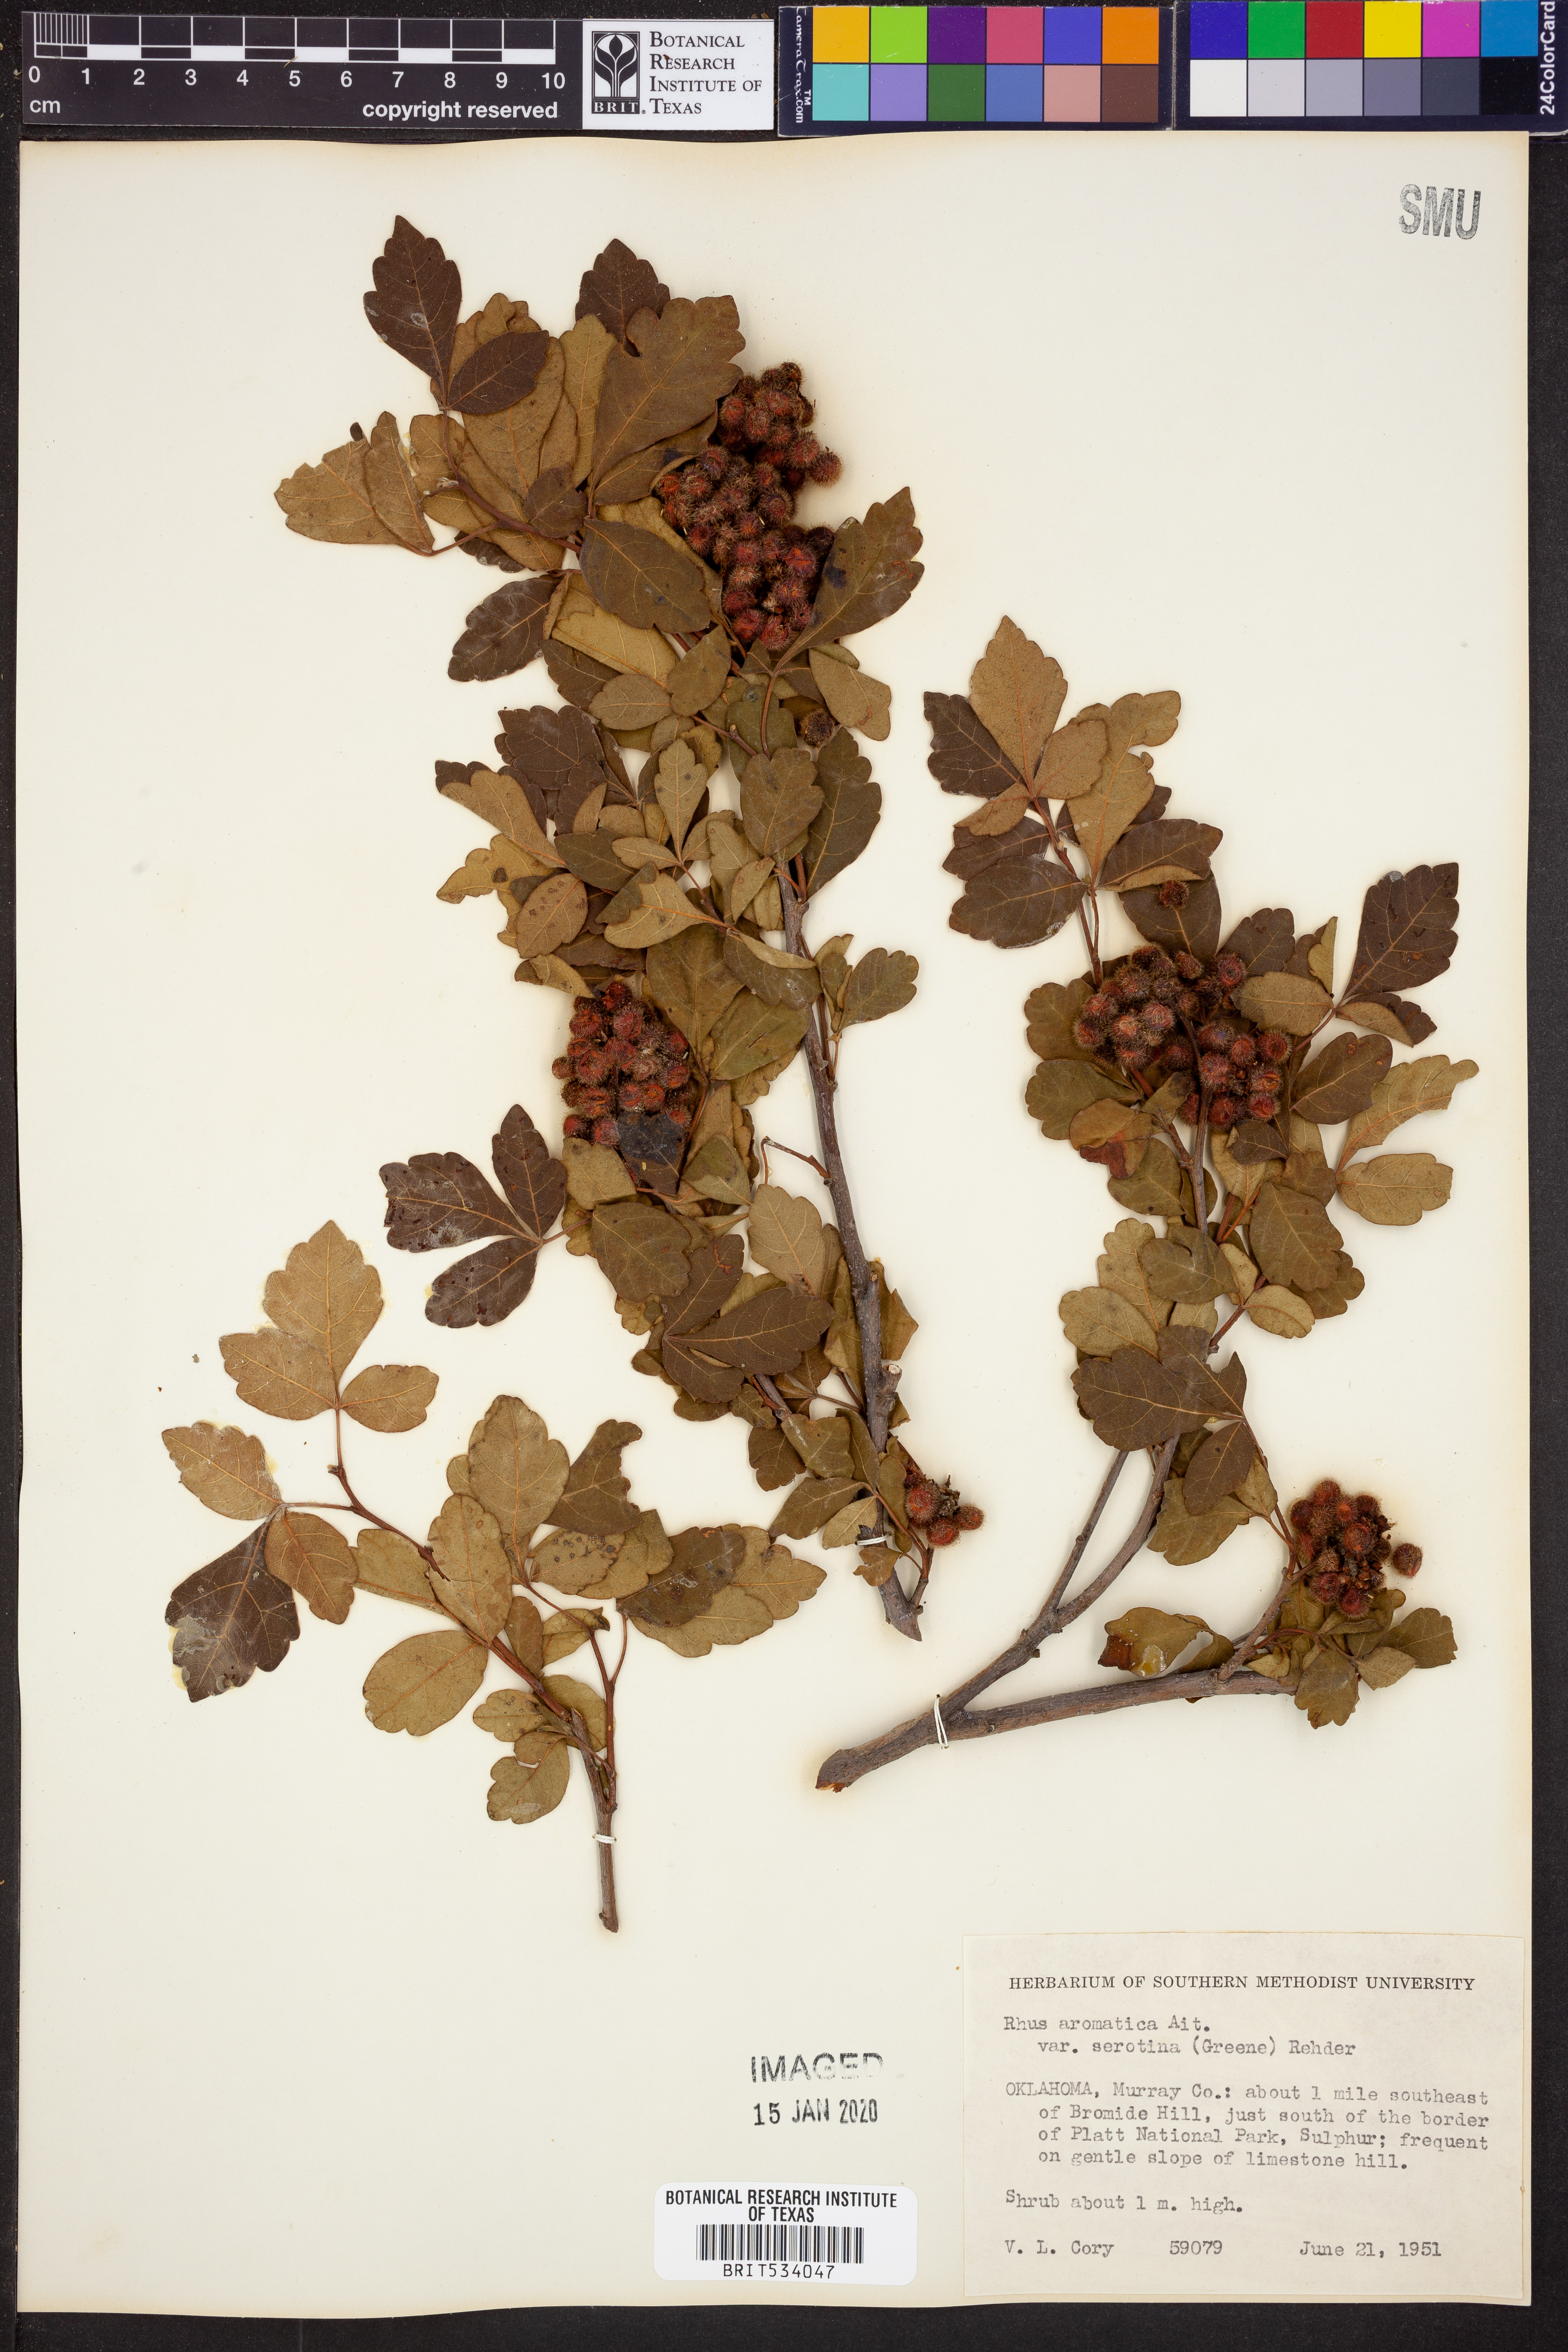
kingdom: Plantae
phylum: Tracheophyta
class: Magnoliopsida
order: Sapindales
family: Anacardiaceae
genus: Rhus
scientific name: Rhus aromatica
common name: Aromatic sumac
